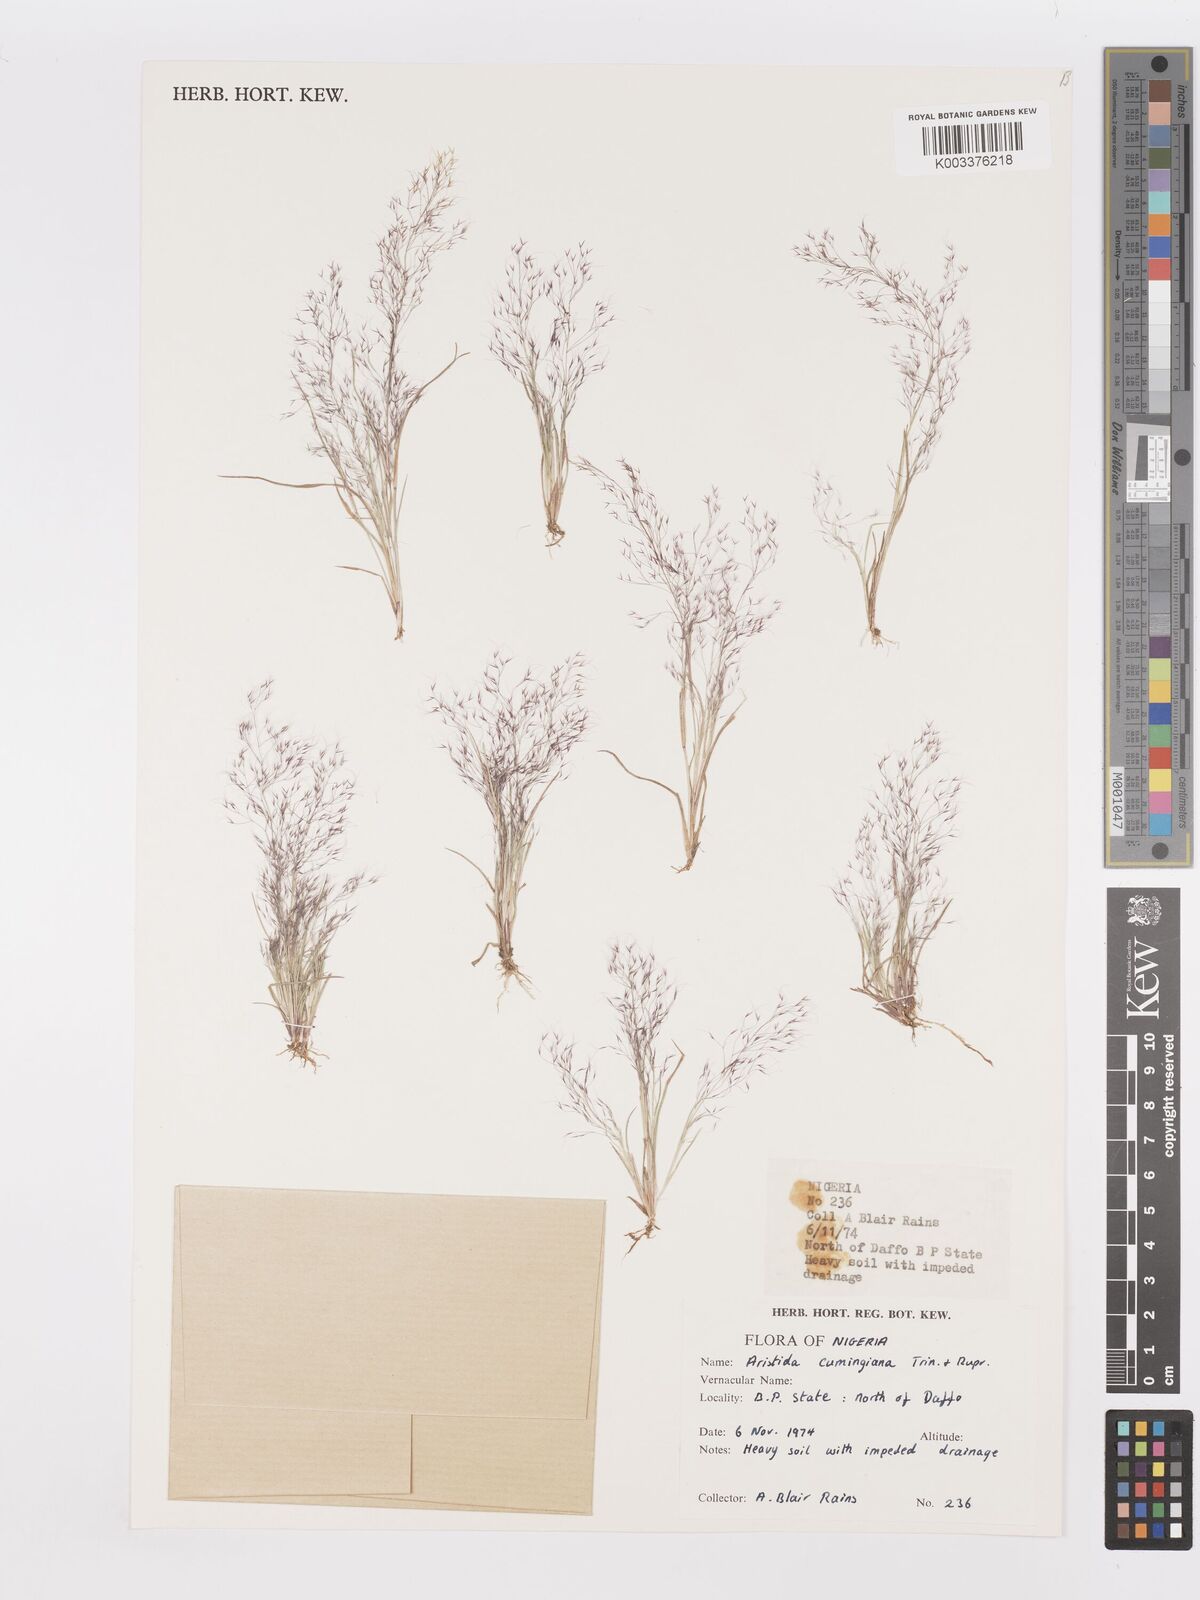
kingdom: Plantae
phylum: Tracheophyta
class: Liliopsida
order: Poales
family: Poaceae
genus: Aristida
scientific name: Aristida cumingiana
